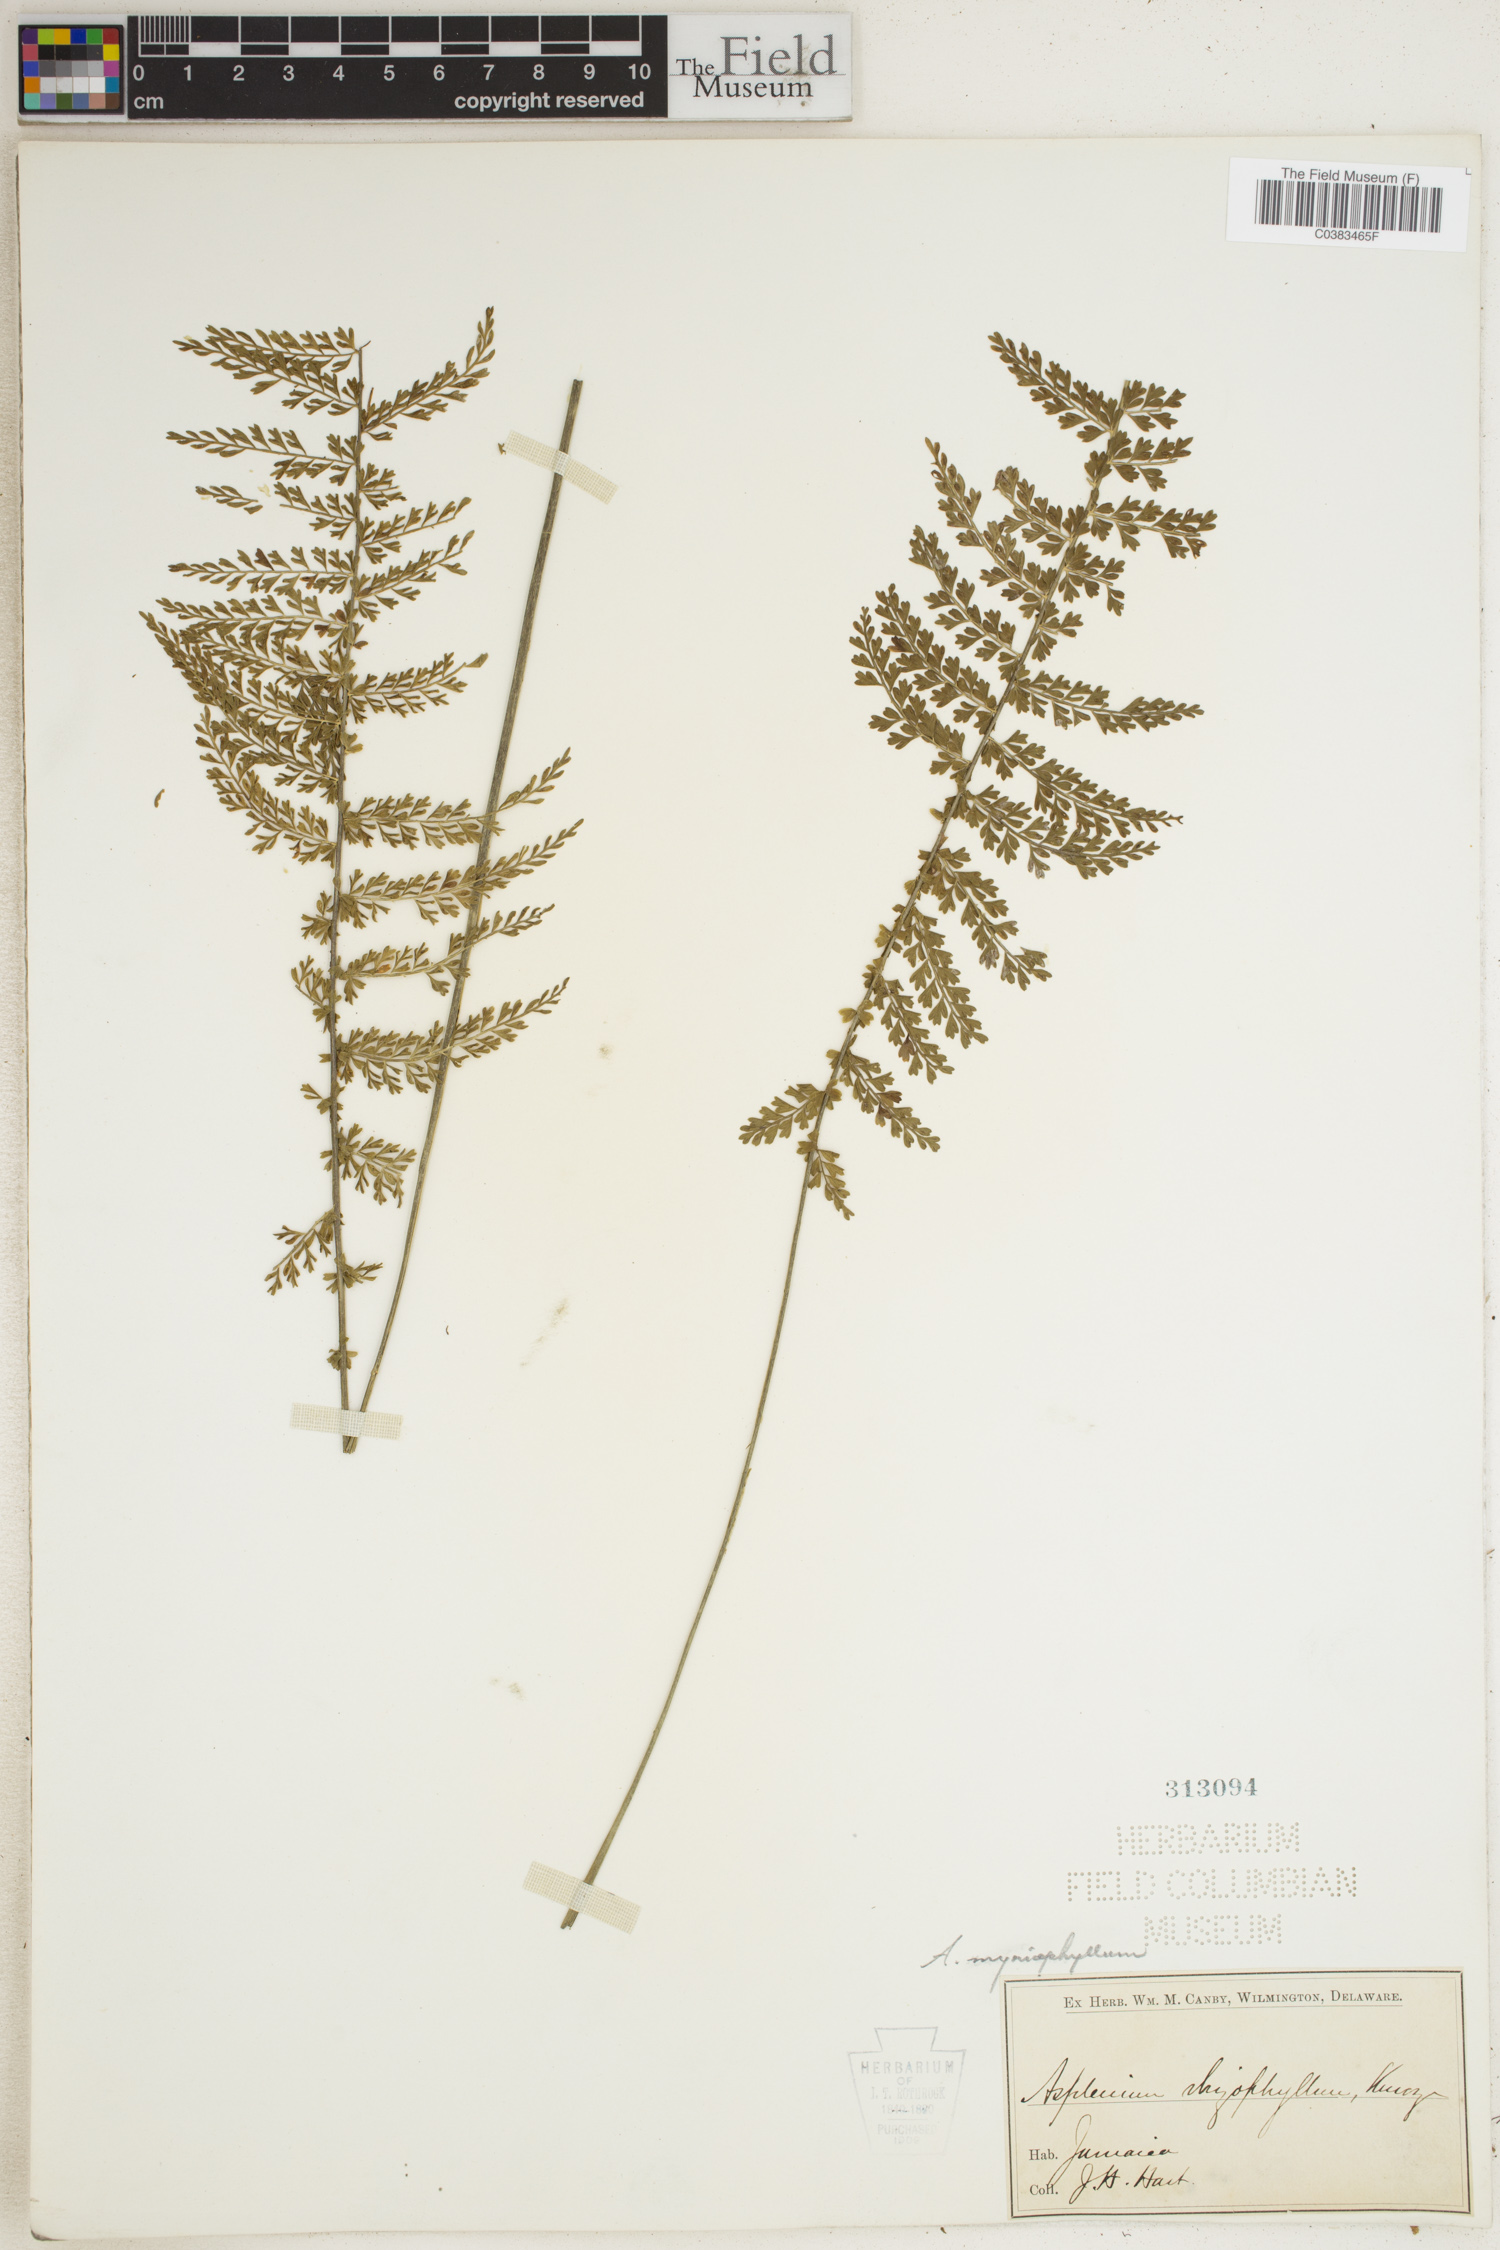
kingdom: Plantae
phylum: Tracheophyta
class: Polypodiopsida
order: Polypodiales
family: Aspleniaceae
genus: Asplenium
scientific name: Asplenium myriophyllum
